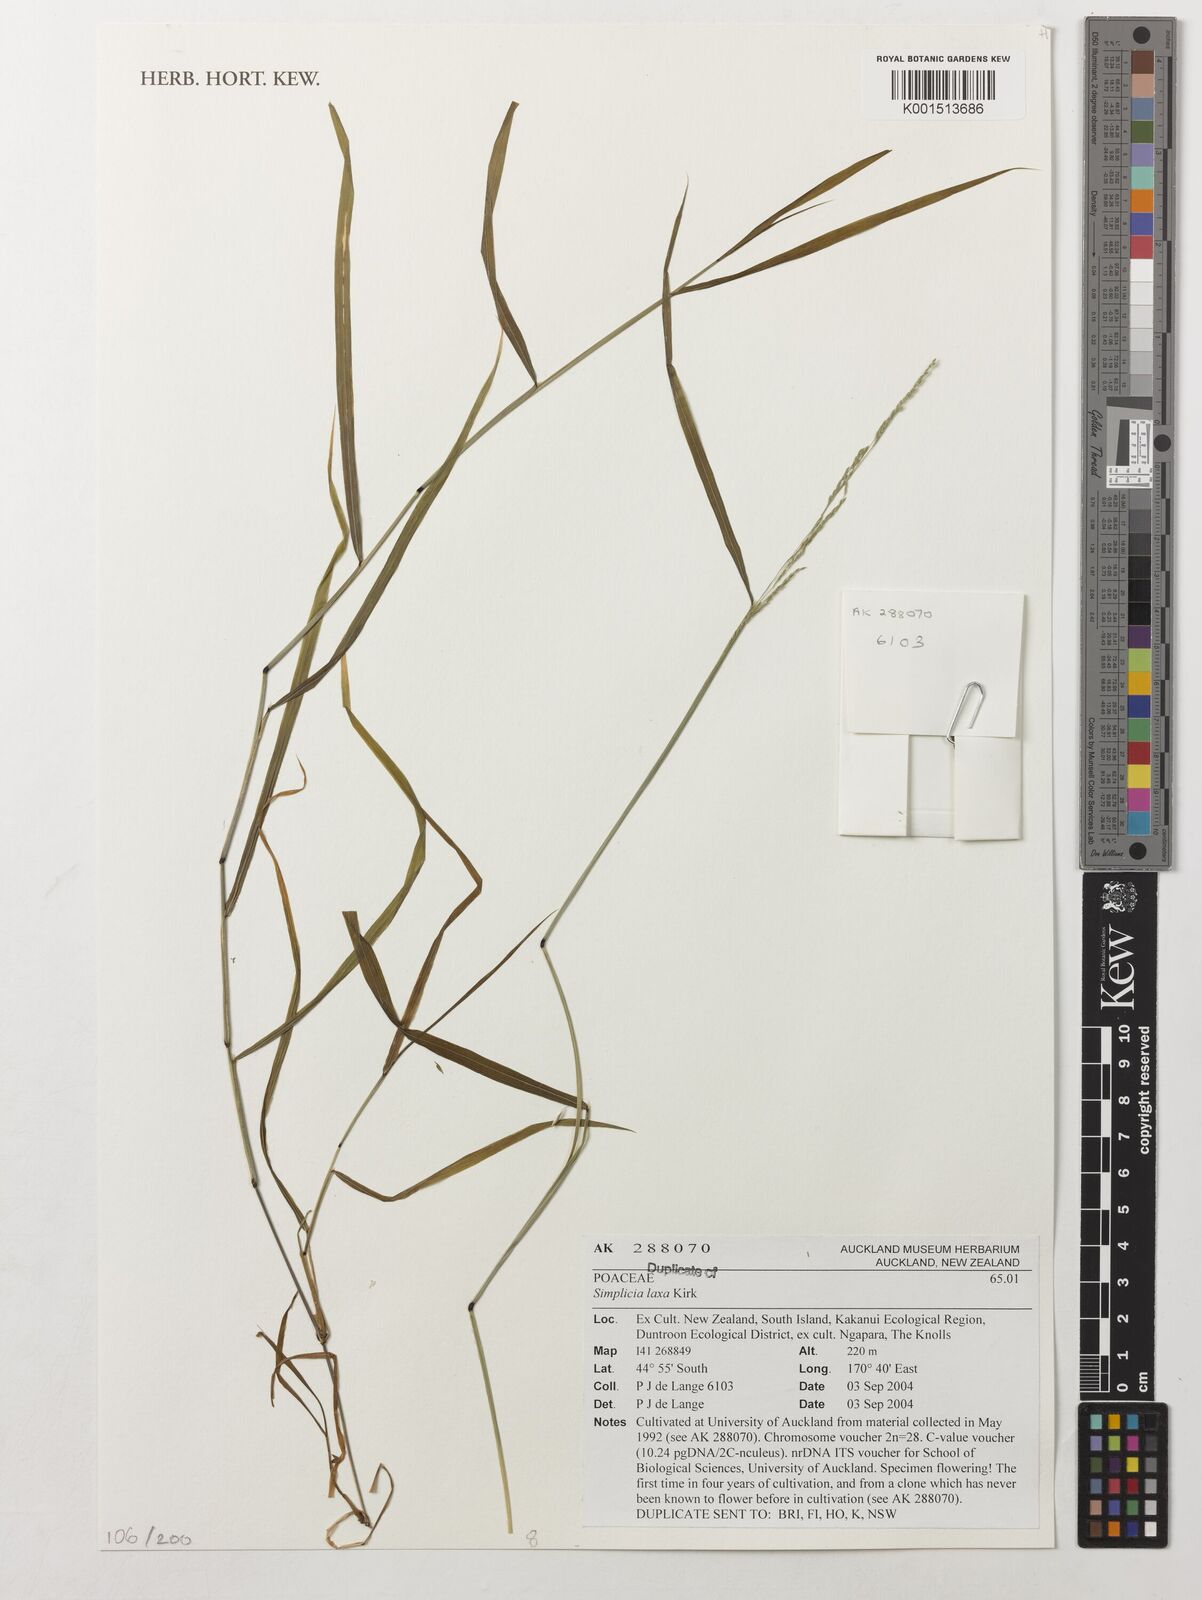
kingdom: Plantae
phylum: Tracheophyta
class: Liliopsida
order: Poales
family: Poaceae
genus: Simplicia
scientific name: Simplicia laxa
